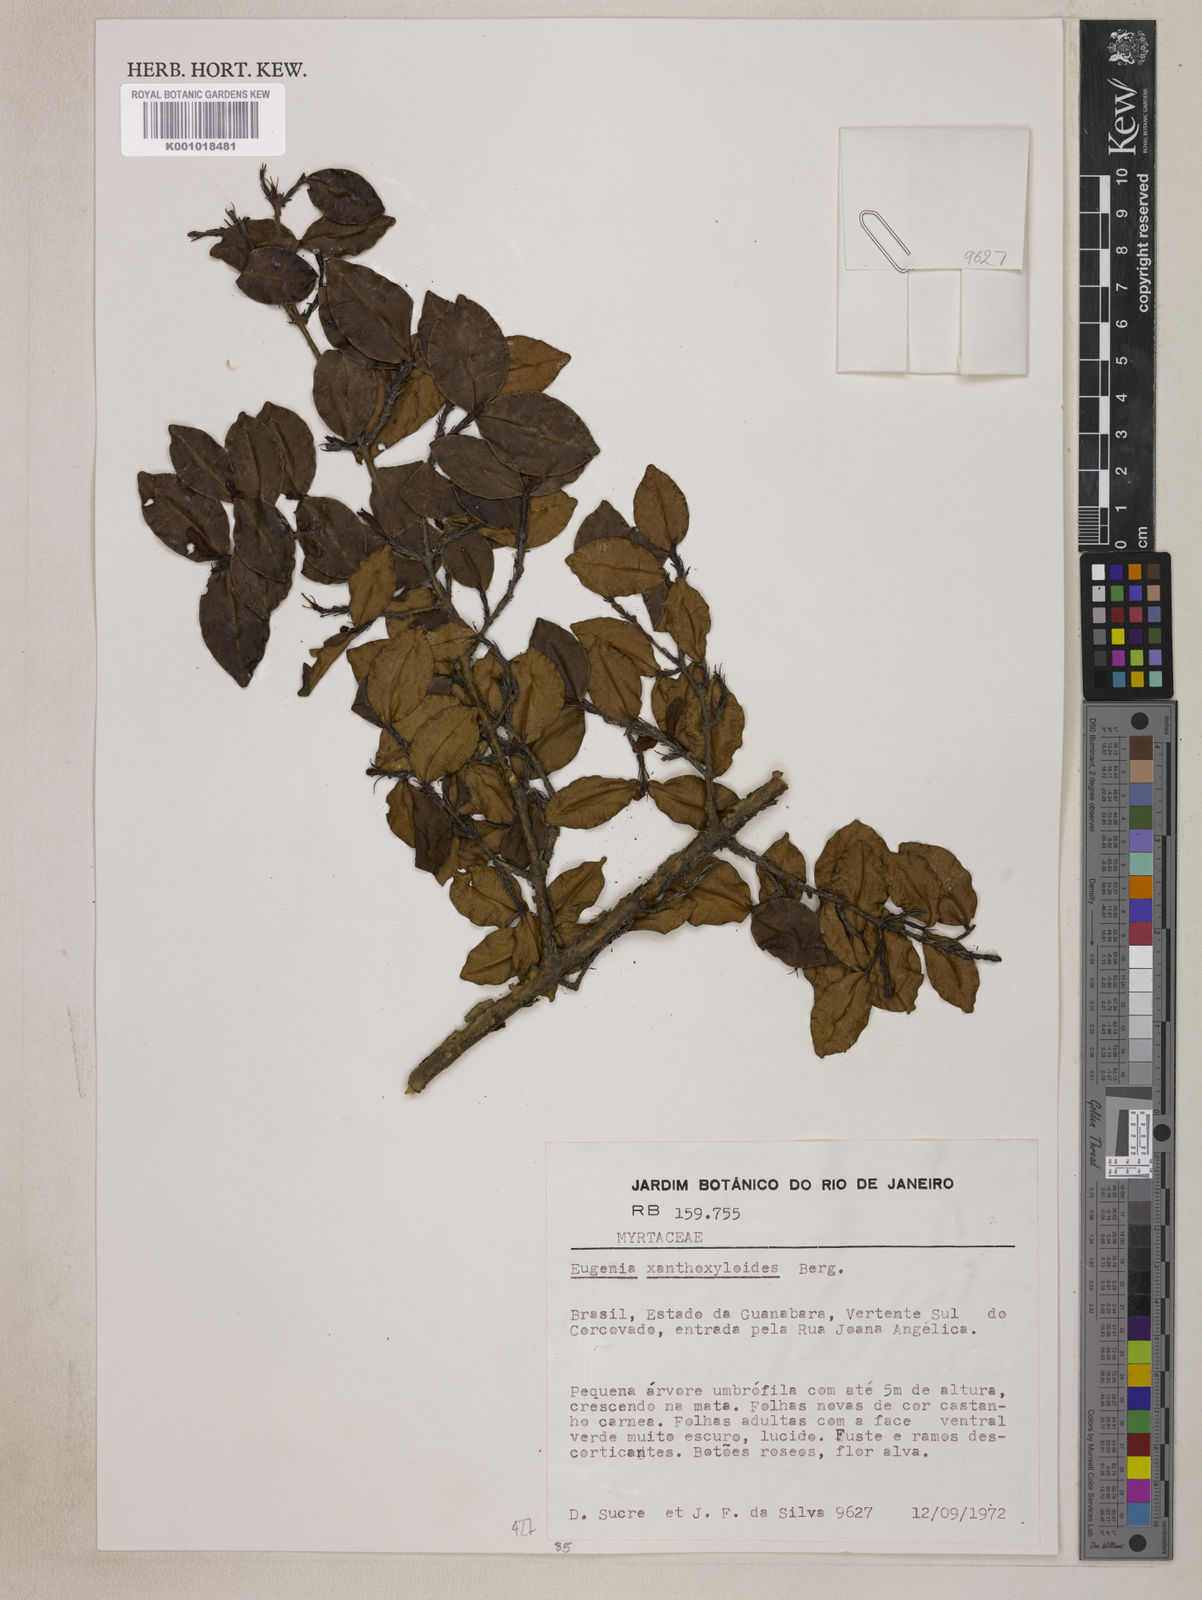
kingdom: Plantae
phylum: Tracheophyta
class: Magnoliopsida
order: Myrtales
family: Myrtaceae
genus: Eugenia
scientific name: Eugenia xanthoxyloides
